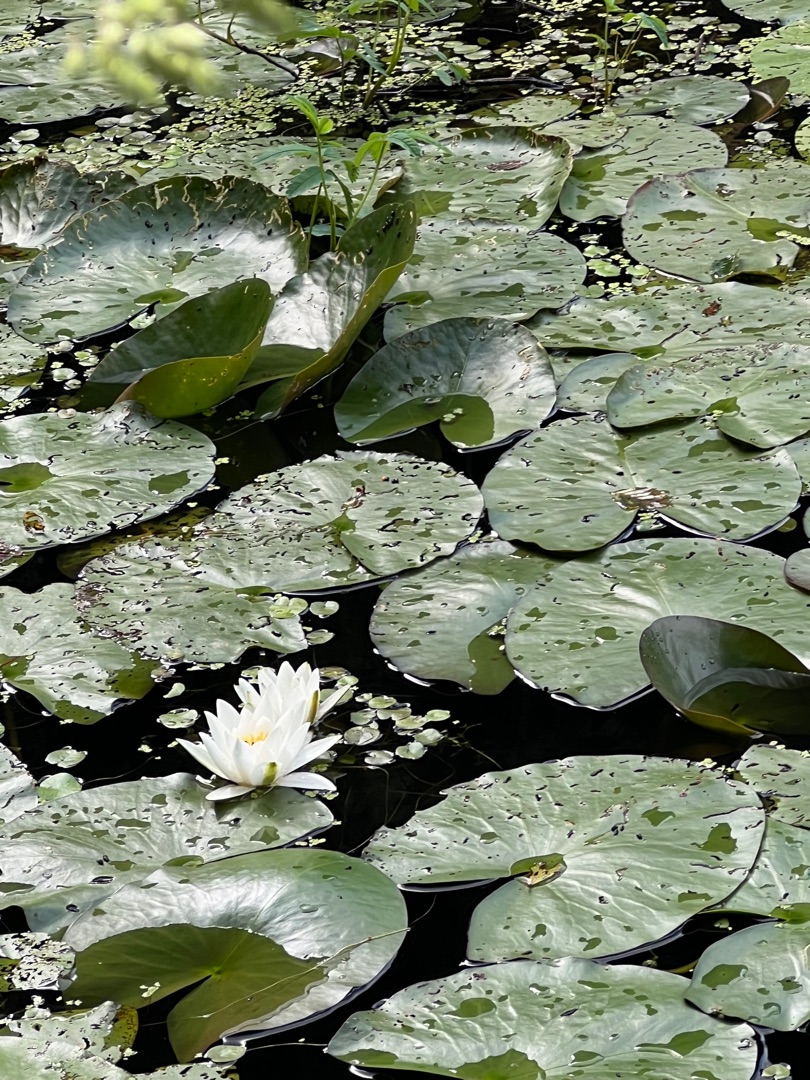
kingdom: Plantae
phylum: Tracheophyta
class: Magnoliopsida
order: Nymphaeales
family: Nymphaeaceae
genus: Nymphaea
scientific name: Nymphaea alba
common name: Hvid åkande
